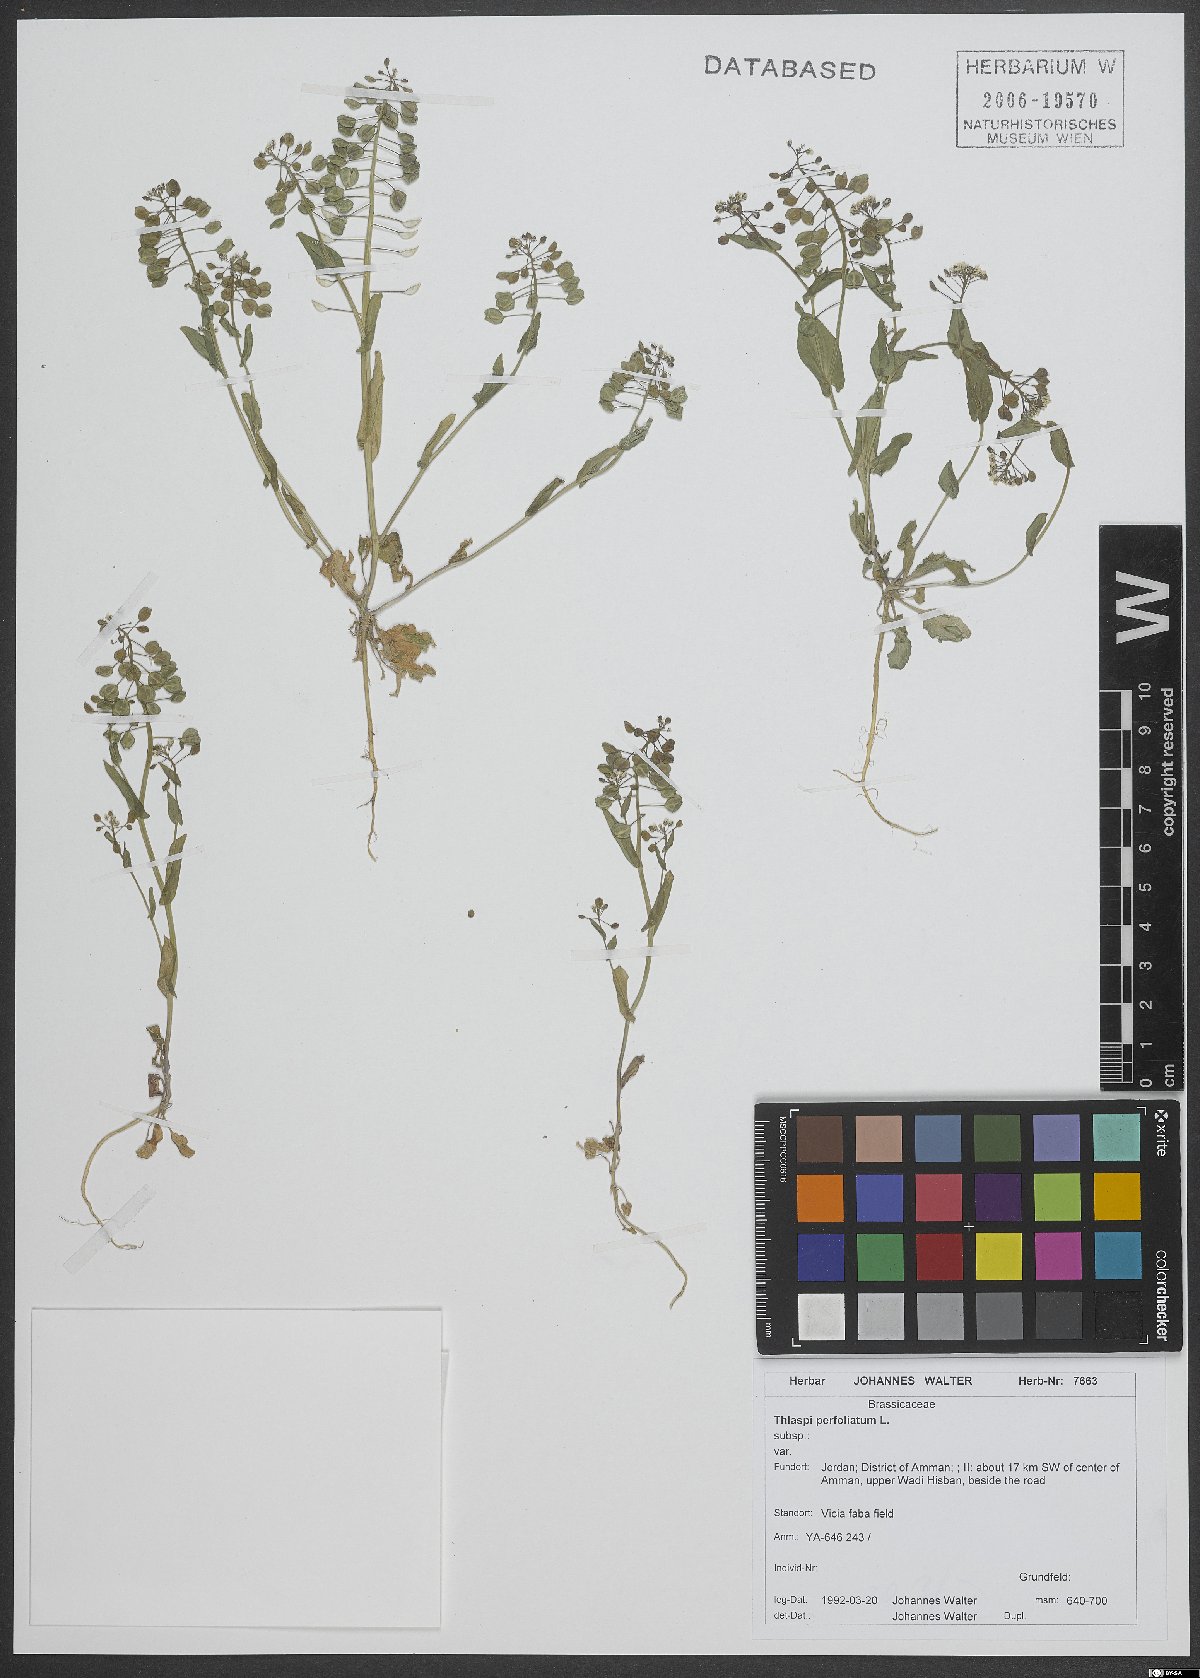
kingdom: Plantae
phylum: Tracheophyta
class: Magnoliopsida
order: Brassicales
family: Brassicaceae
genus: Noccaea
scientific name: Noccaea perfoliata
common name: Perfoliate pennycress
